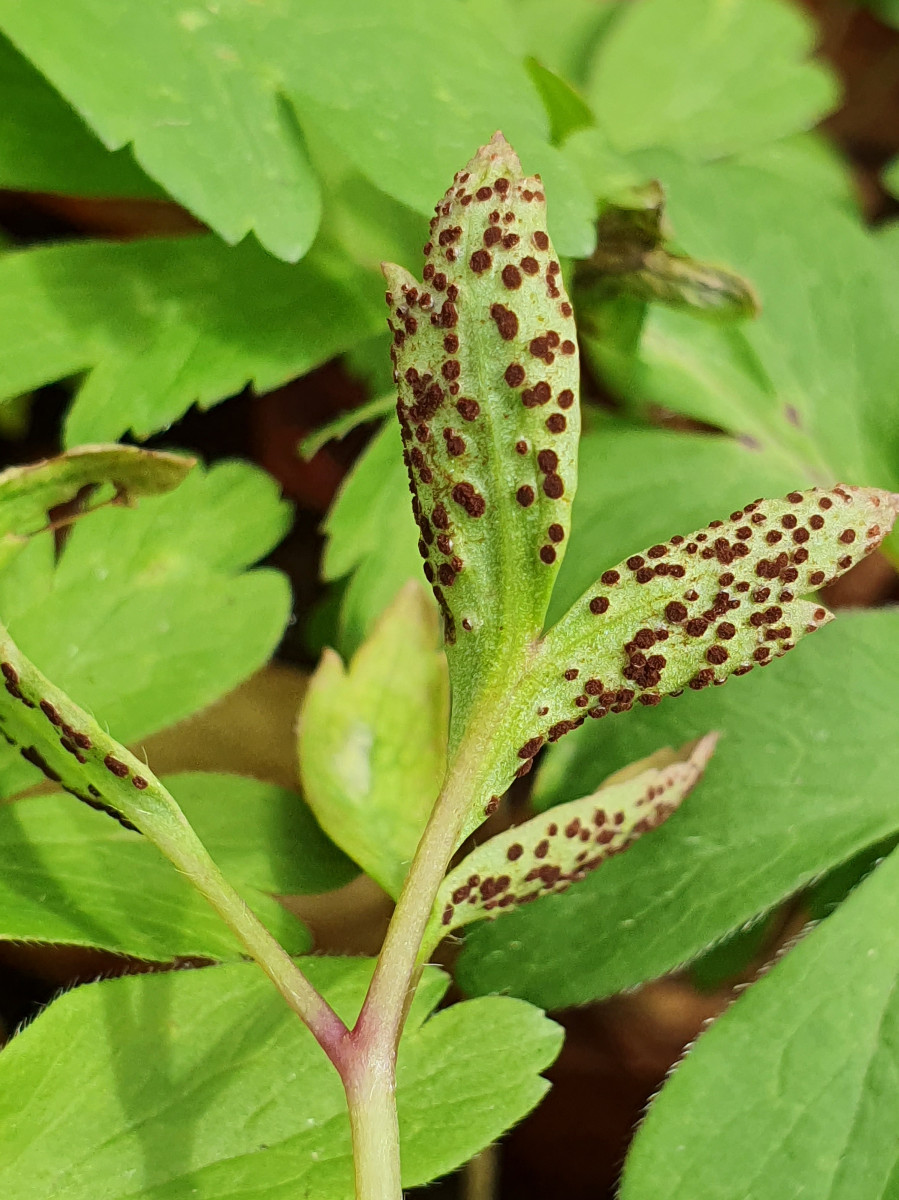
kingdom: Fungi
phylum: Basidiomycota
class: Pucciniomycetes
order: Pucciniales
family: Tranzscheliaceae
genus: Tranzschelia
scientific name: Tranzschelia anemones
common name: anemone-knæksporerust
